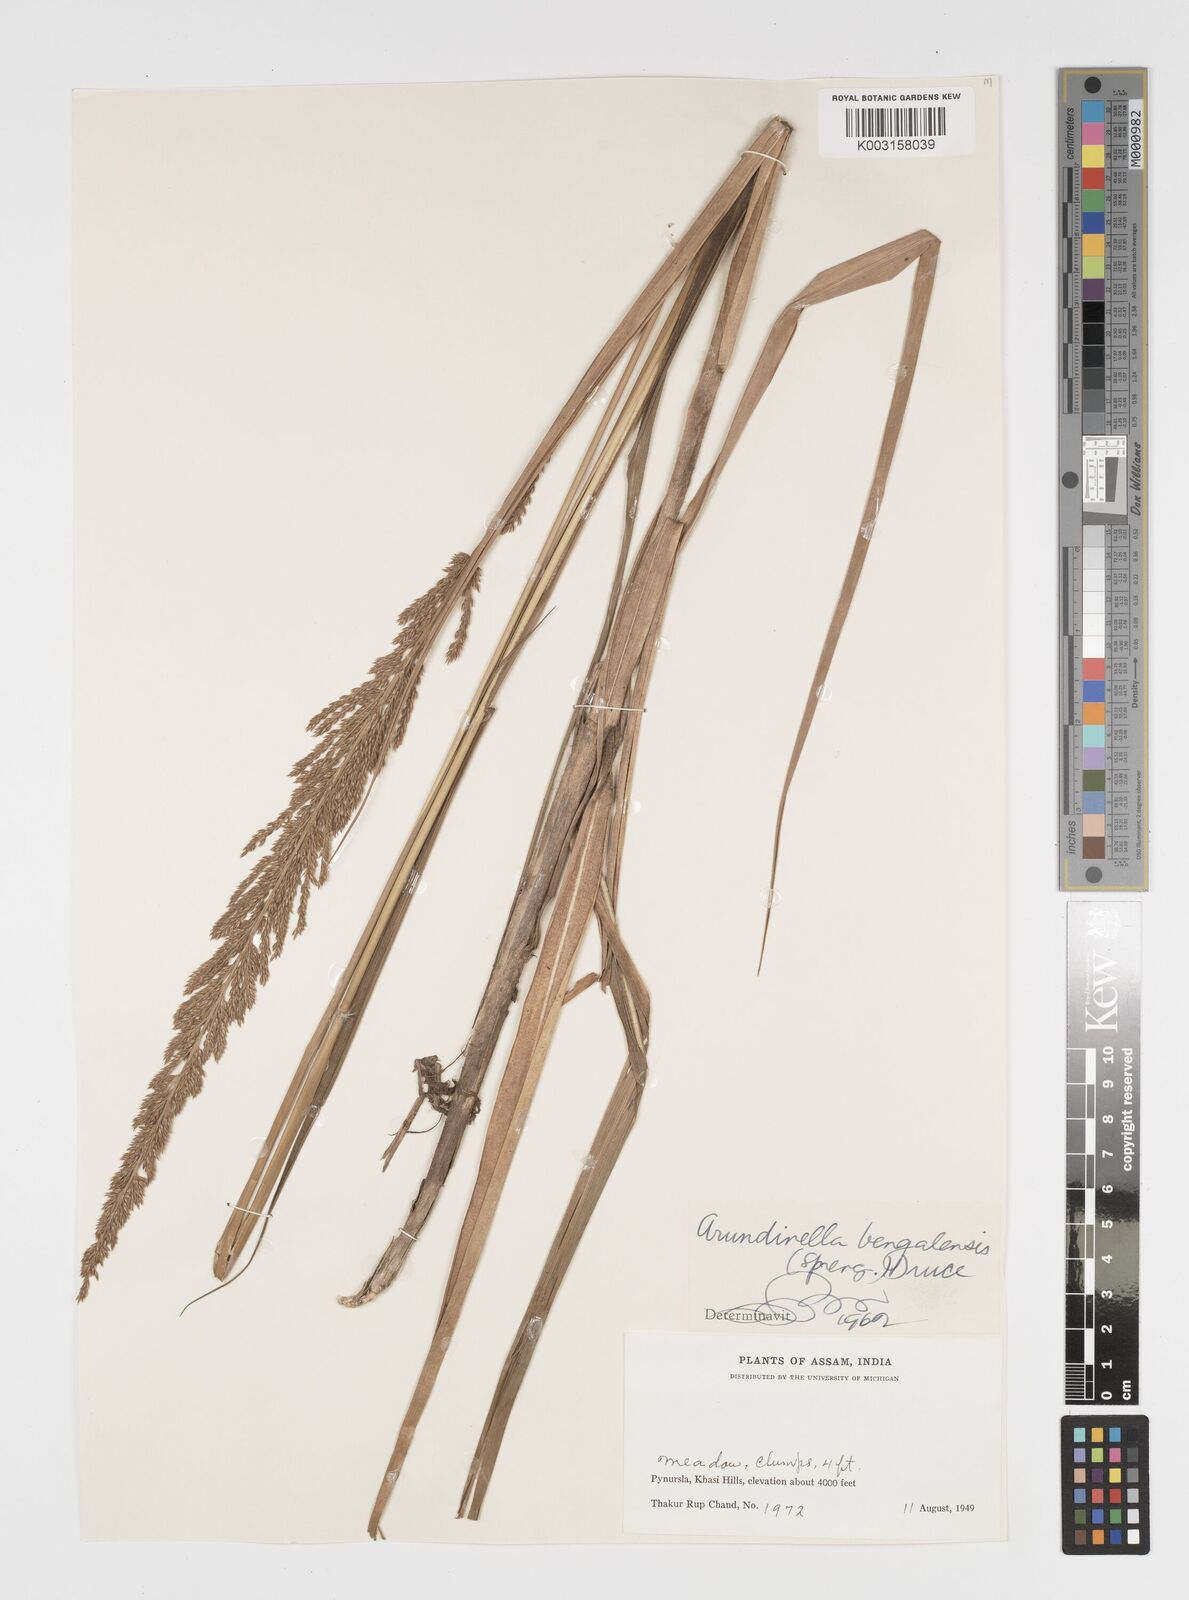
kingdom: Plantae
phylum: Tracheophyta
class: Liliopsida
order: Poales
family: Poaceae
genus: Arundinella
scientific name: Arundinella bengalensis
